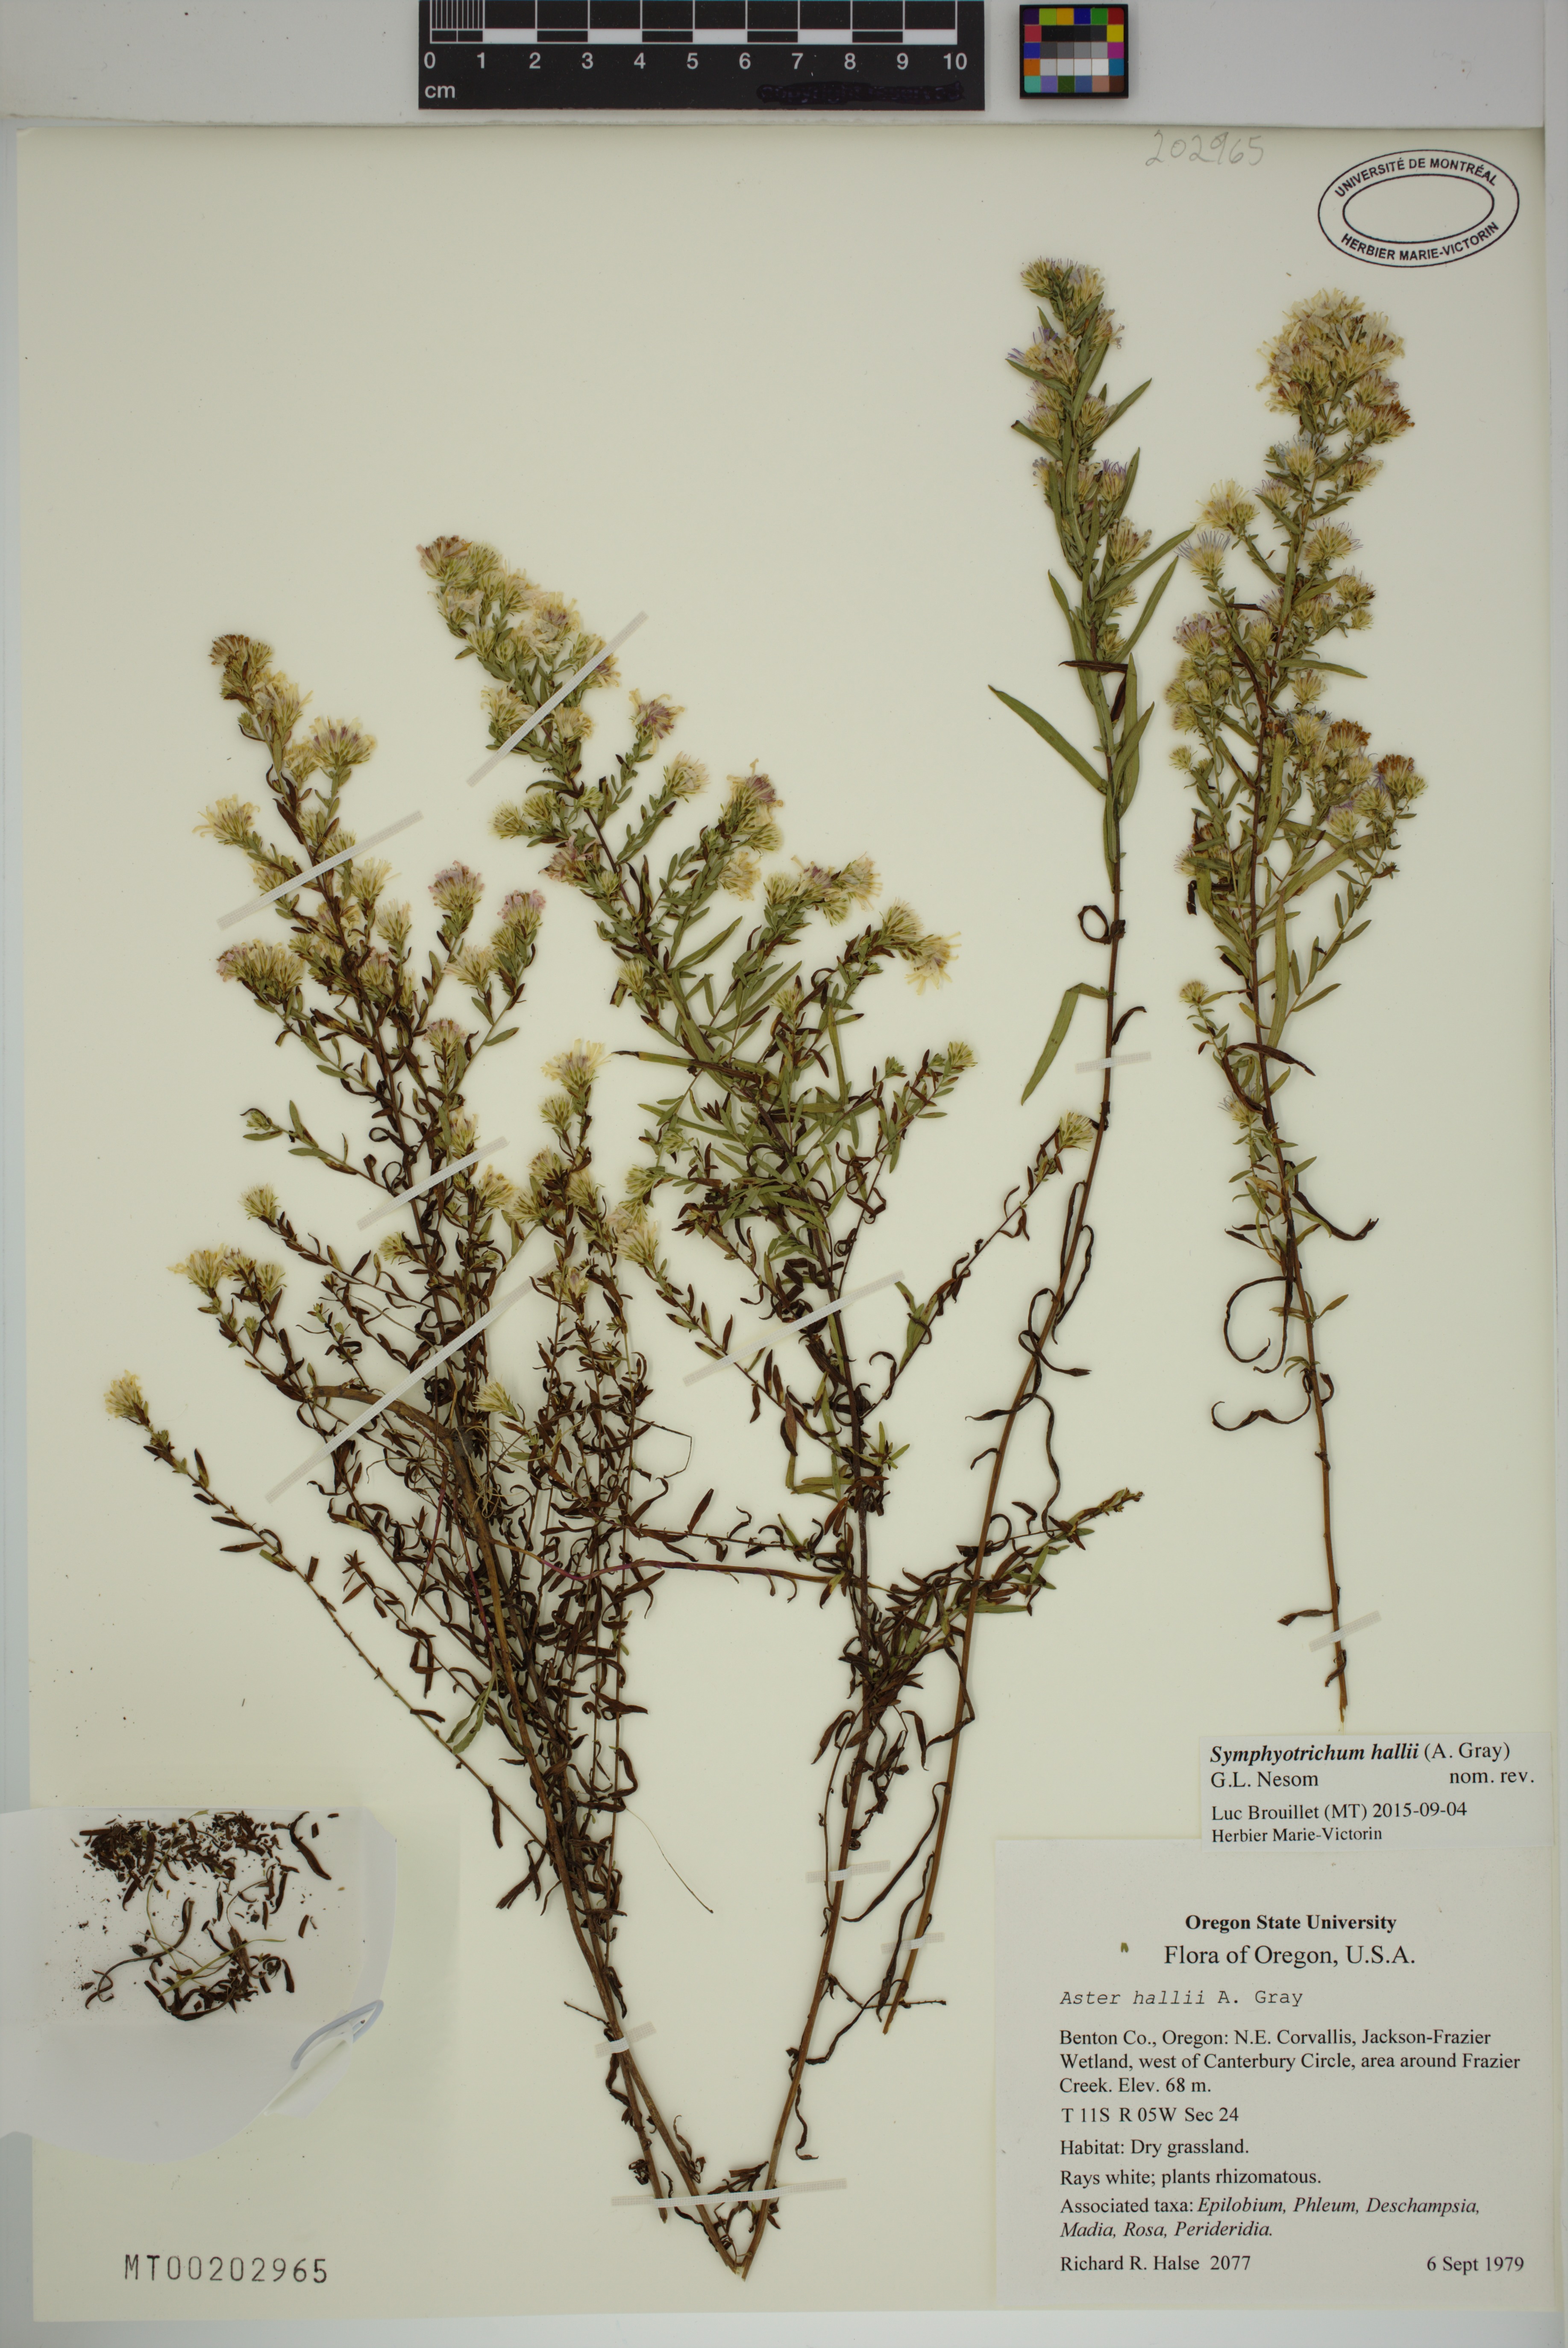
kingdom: Plantae
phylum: Tracheophyta
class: Magnoliopsida
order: Asterales
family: Asteraceae
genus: Symphyotrichum
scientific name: Symphyotrichum hallii
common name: Hall's aster
